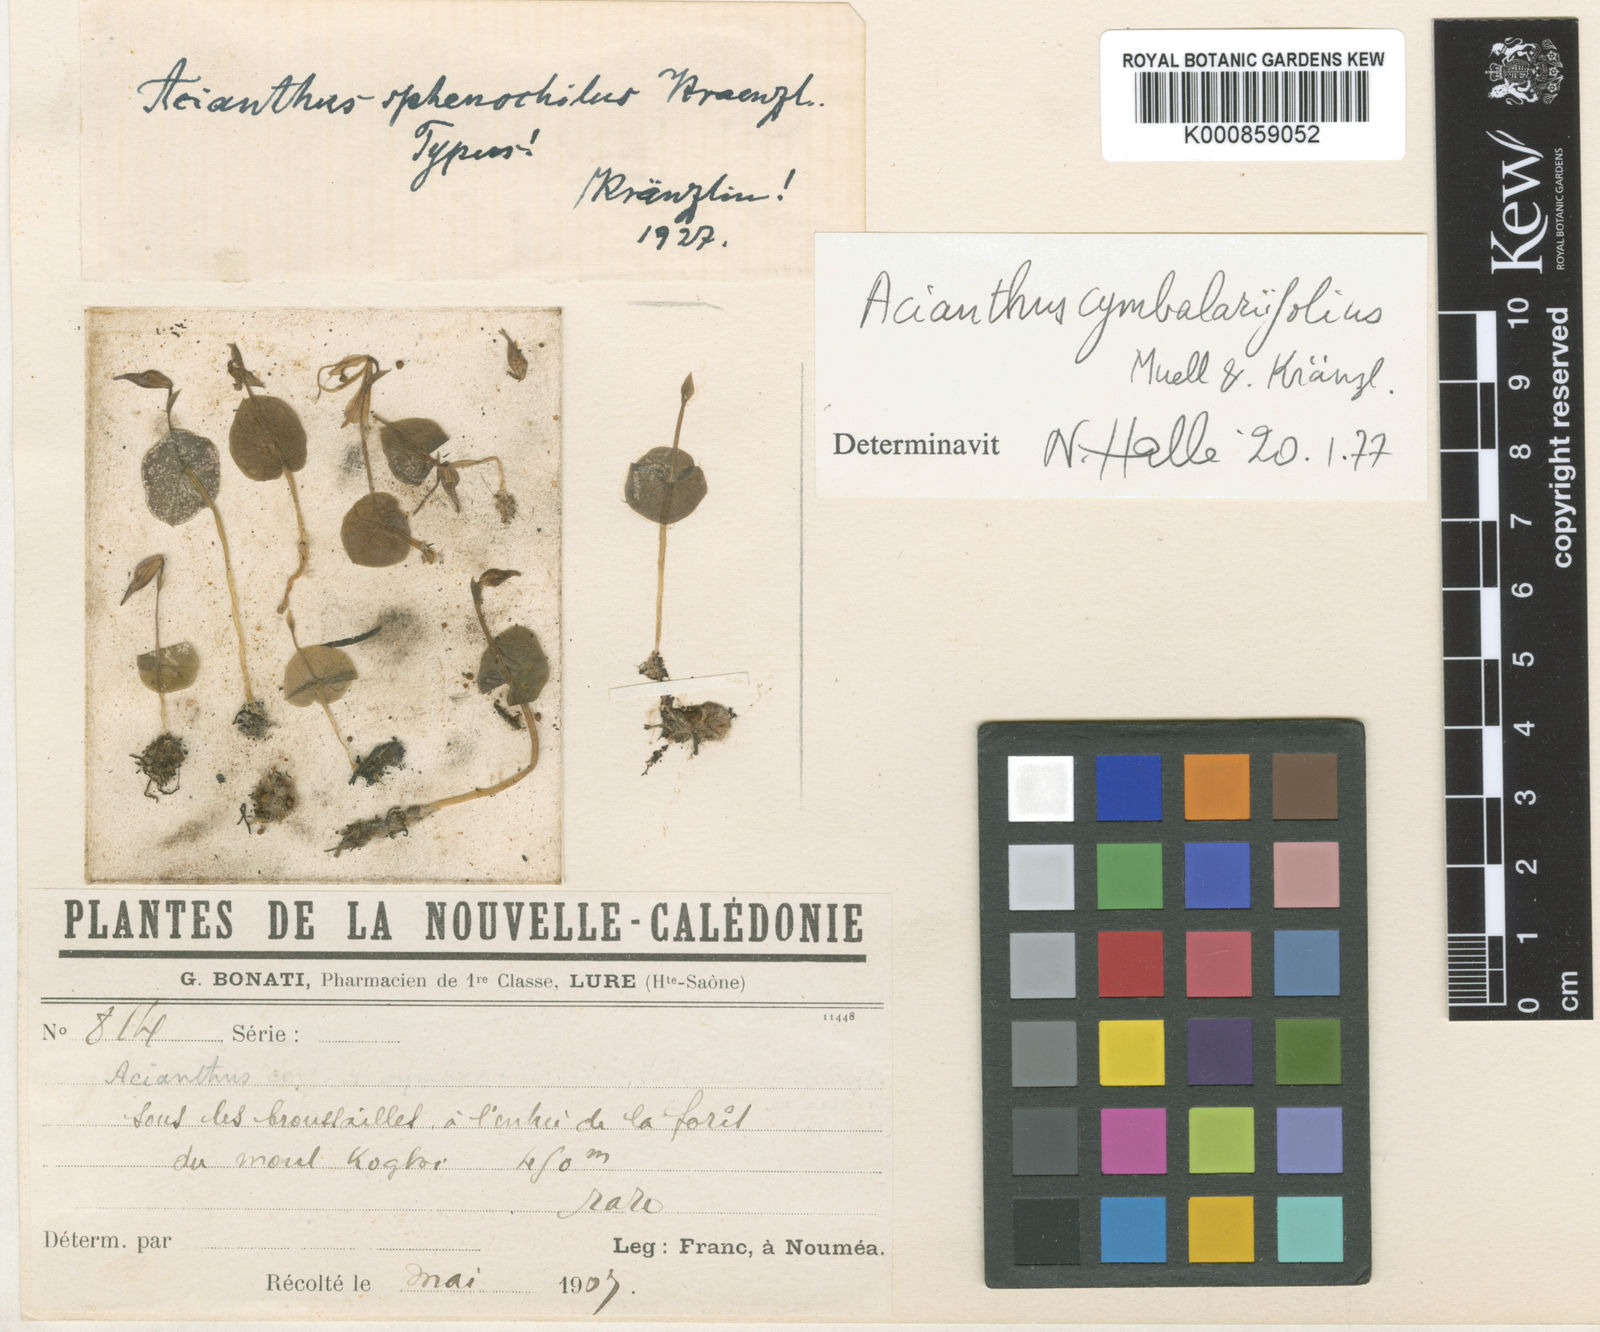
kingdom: Plantae
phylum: Tracheophyta
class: Liliopsida
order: Asparagales
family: Orchidaceae
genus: Stigmatodactylus
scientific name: Stigmatodactylus cymbalariifolius
